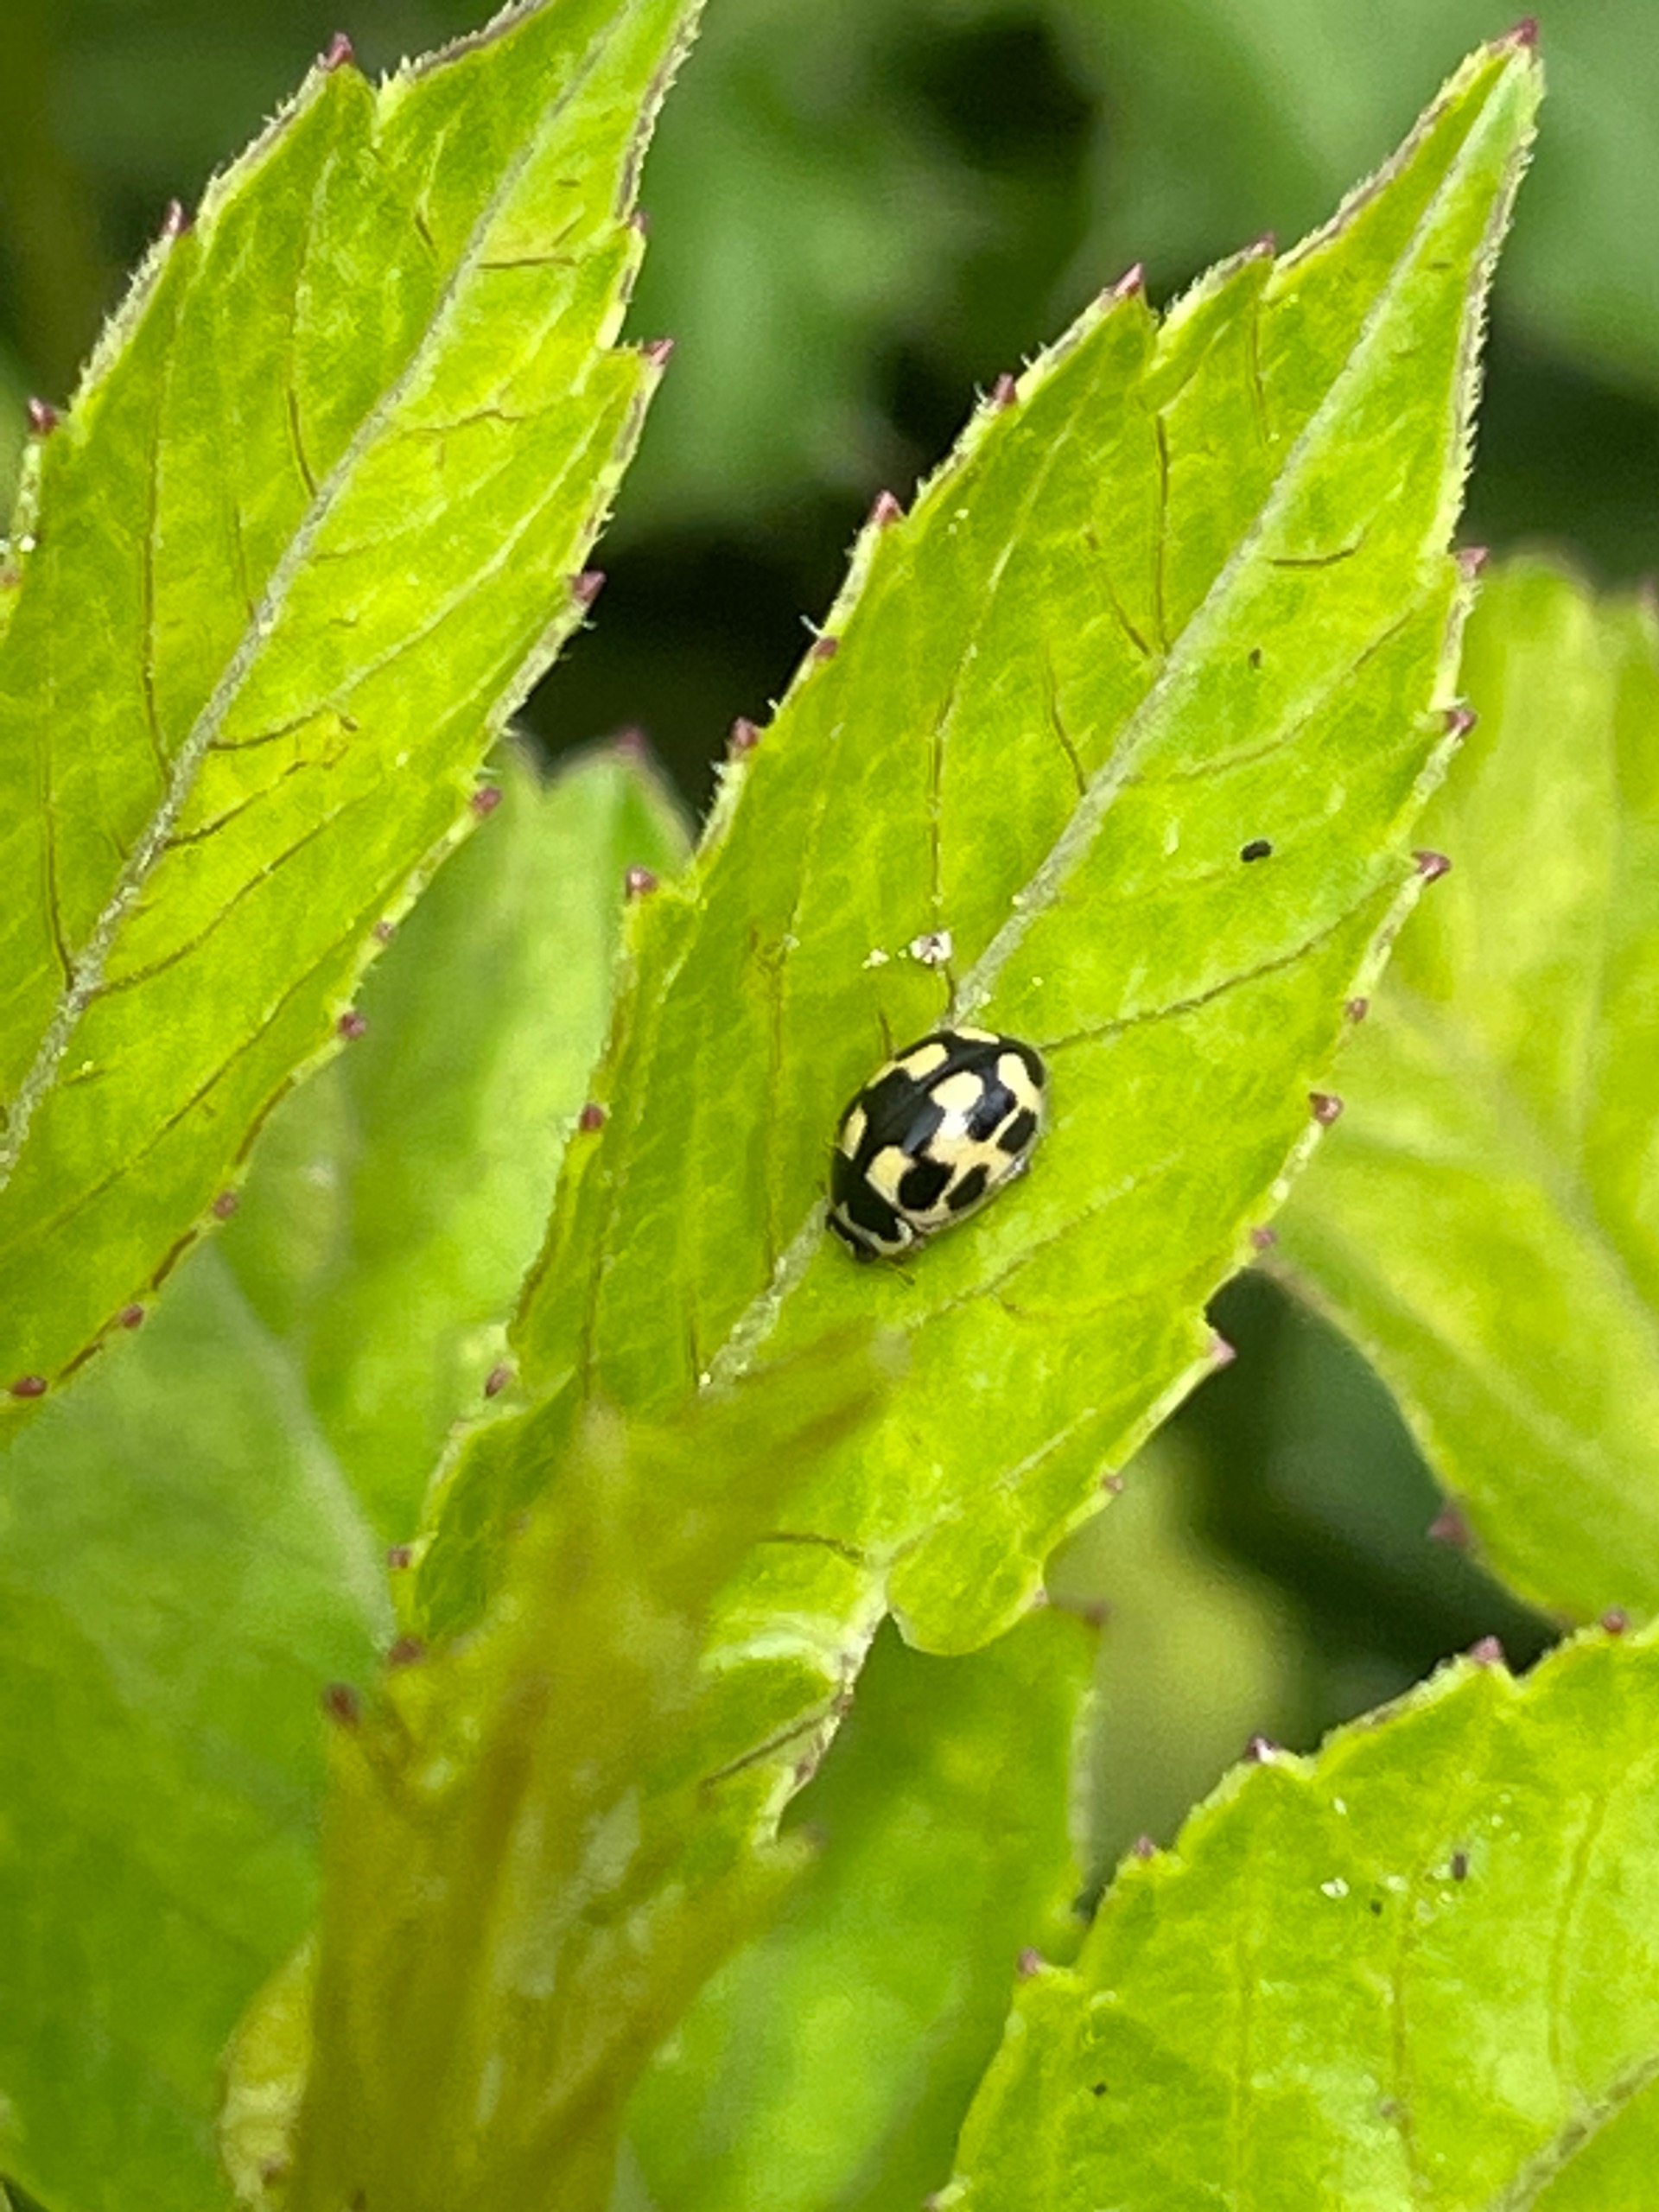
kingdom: Animalia
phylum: Arthropoda
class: Insecta
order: Coleoptera
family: Coccinellidae
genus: Propylaea
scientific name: Propylaea quatuordecimpunctata
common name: Skakbræt
